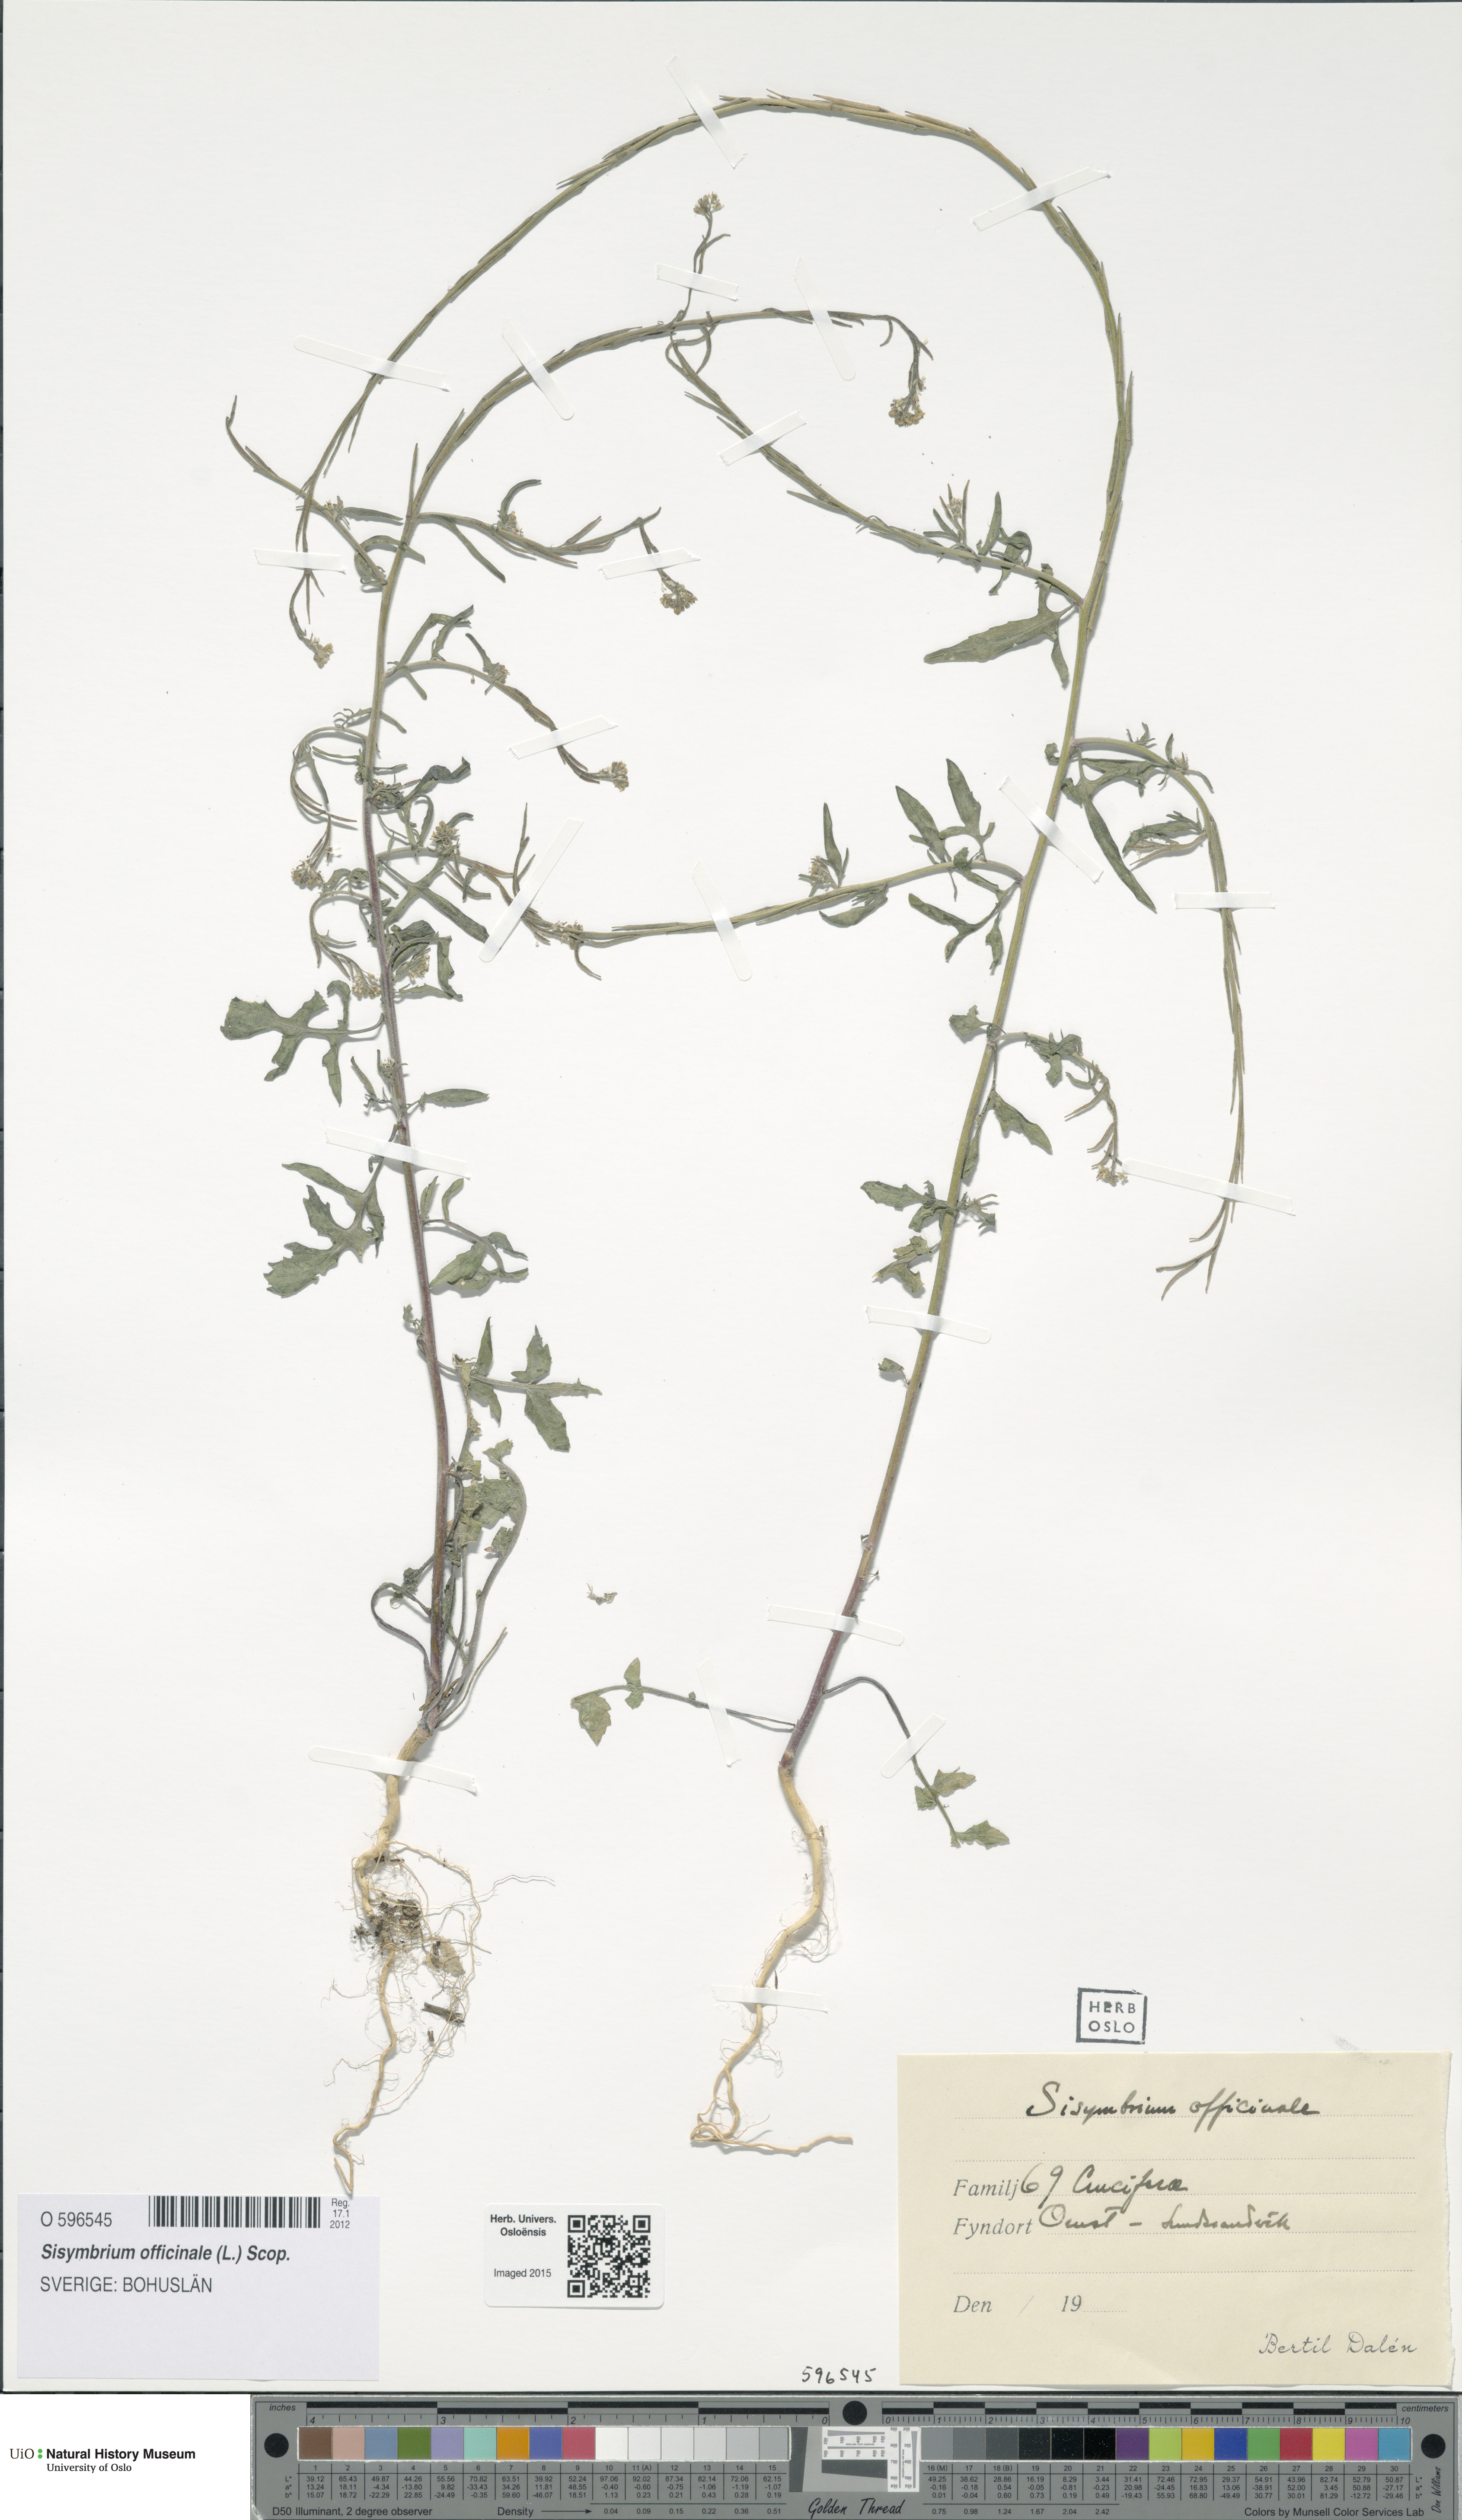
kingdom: Plantae
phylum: Tracheophyta
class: Magnoliopsida
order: Brassicales
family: Brassicaceae
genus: Sisymbrium
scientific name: Sisymbrium officinale
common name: Hedge mustard
